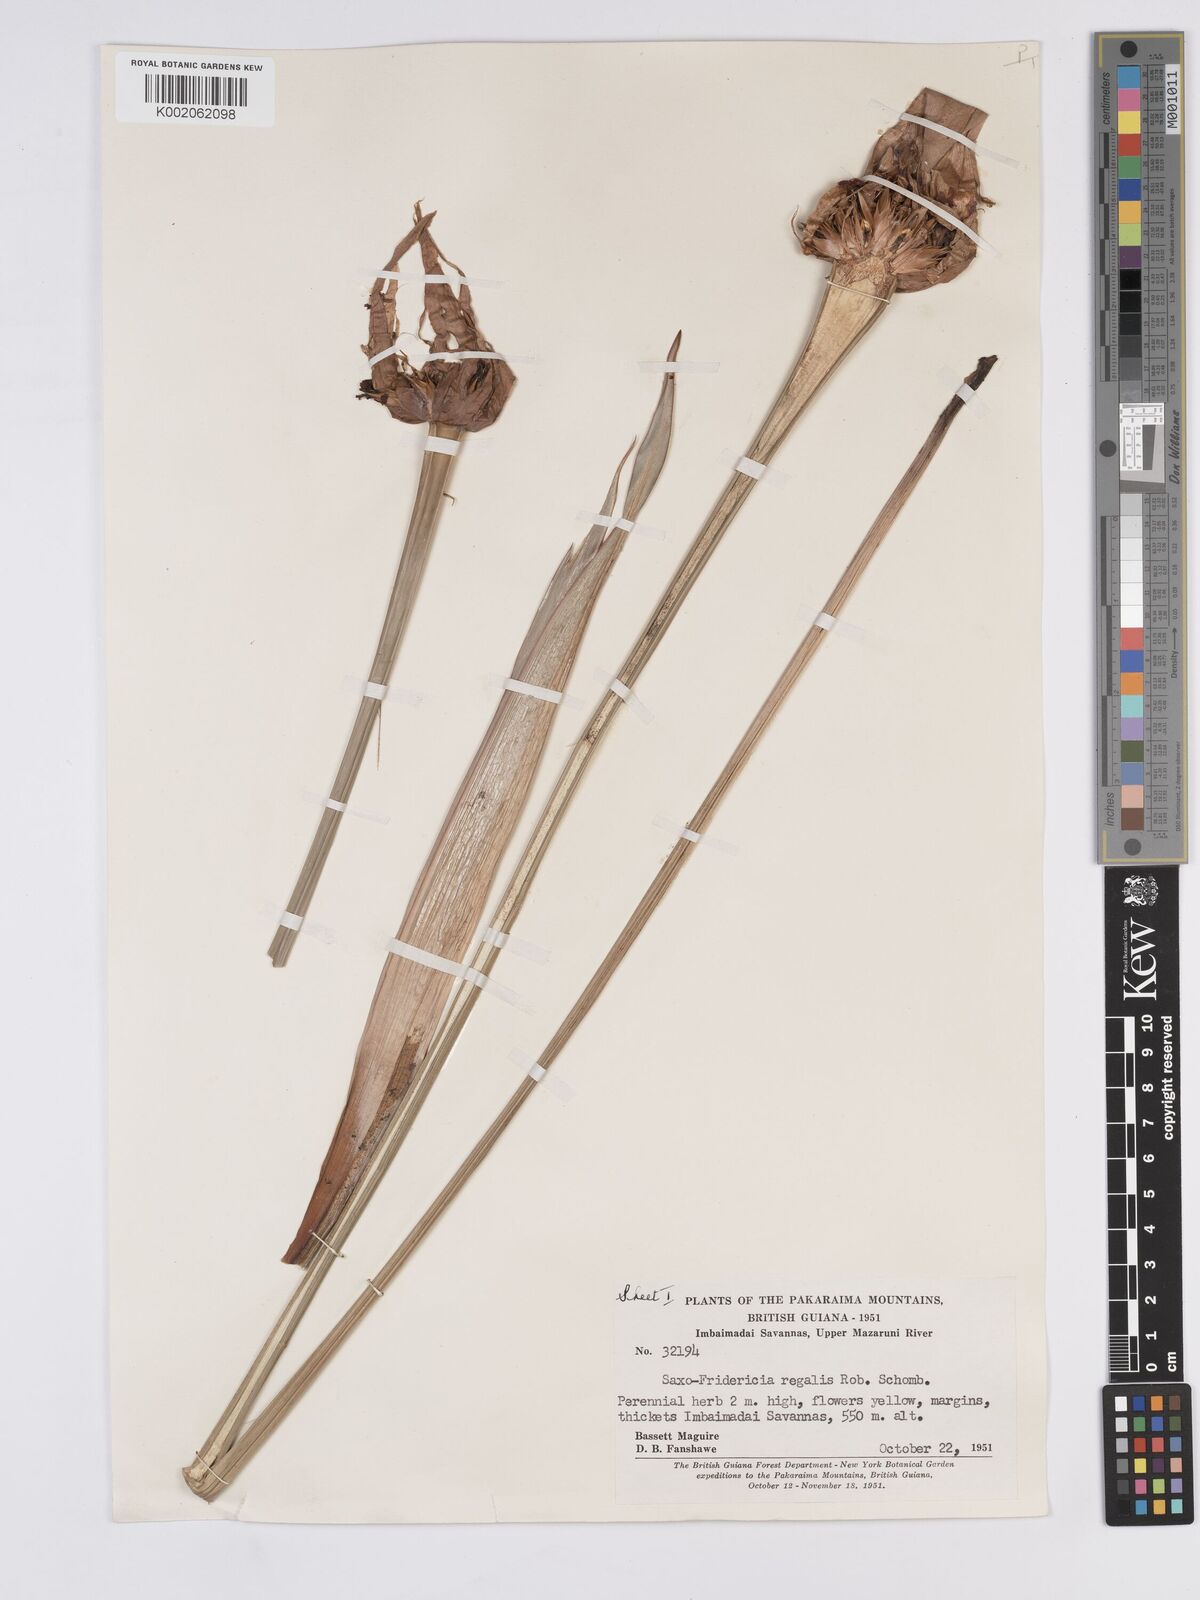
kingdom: Plantae
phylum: Tracheophyta
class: Liliopsida
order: Poales
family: Rapateaceae
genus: Saxofridericia
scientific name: Saxofridericia regalis
